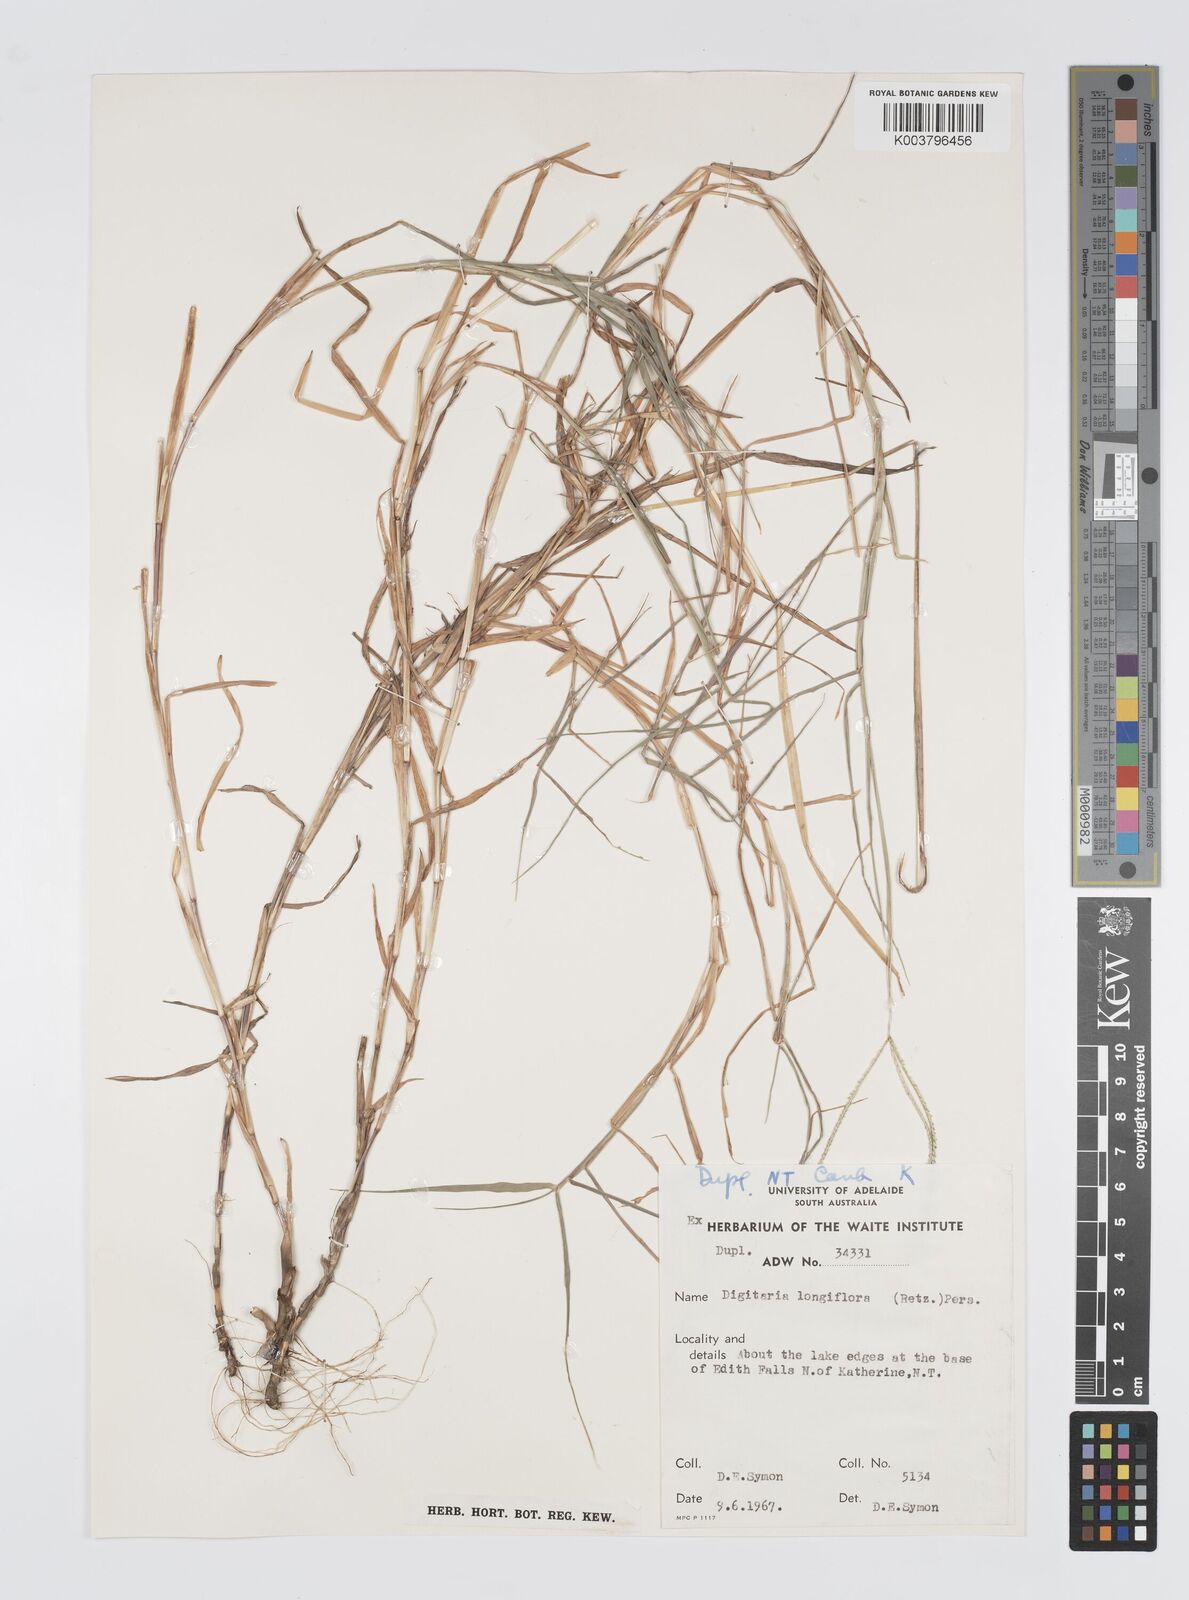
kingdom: Plantae
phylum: Tracheophyta
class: Liliopsida
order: Poales
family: Poaceae
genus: Digitaria
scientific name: Digitaria heterantha
